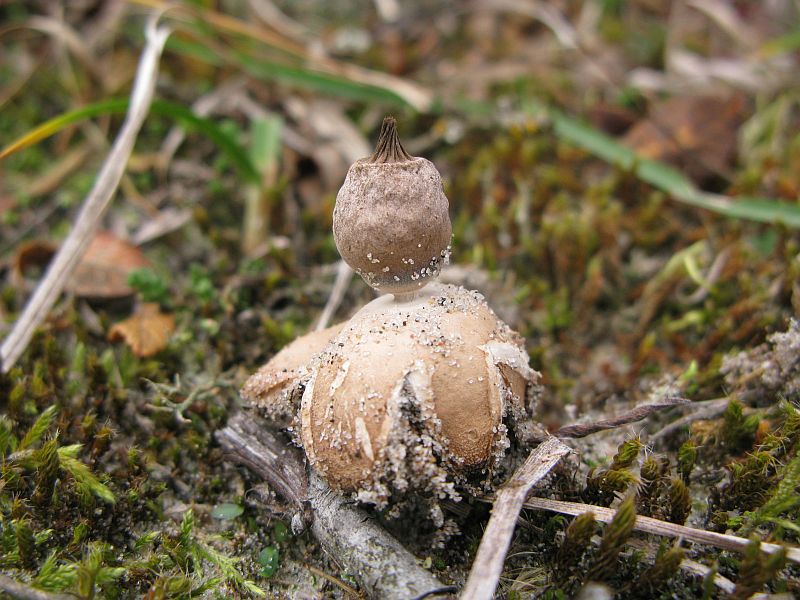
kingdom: Fungi
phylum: Basidiomycota
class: Agaricomycetes
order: Geastrales
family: Geastraceae
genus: Geastrum
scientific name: Geastrum striatum
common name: dværg-stjernebold
